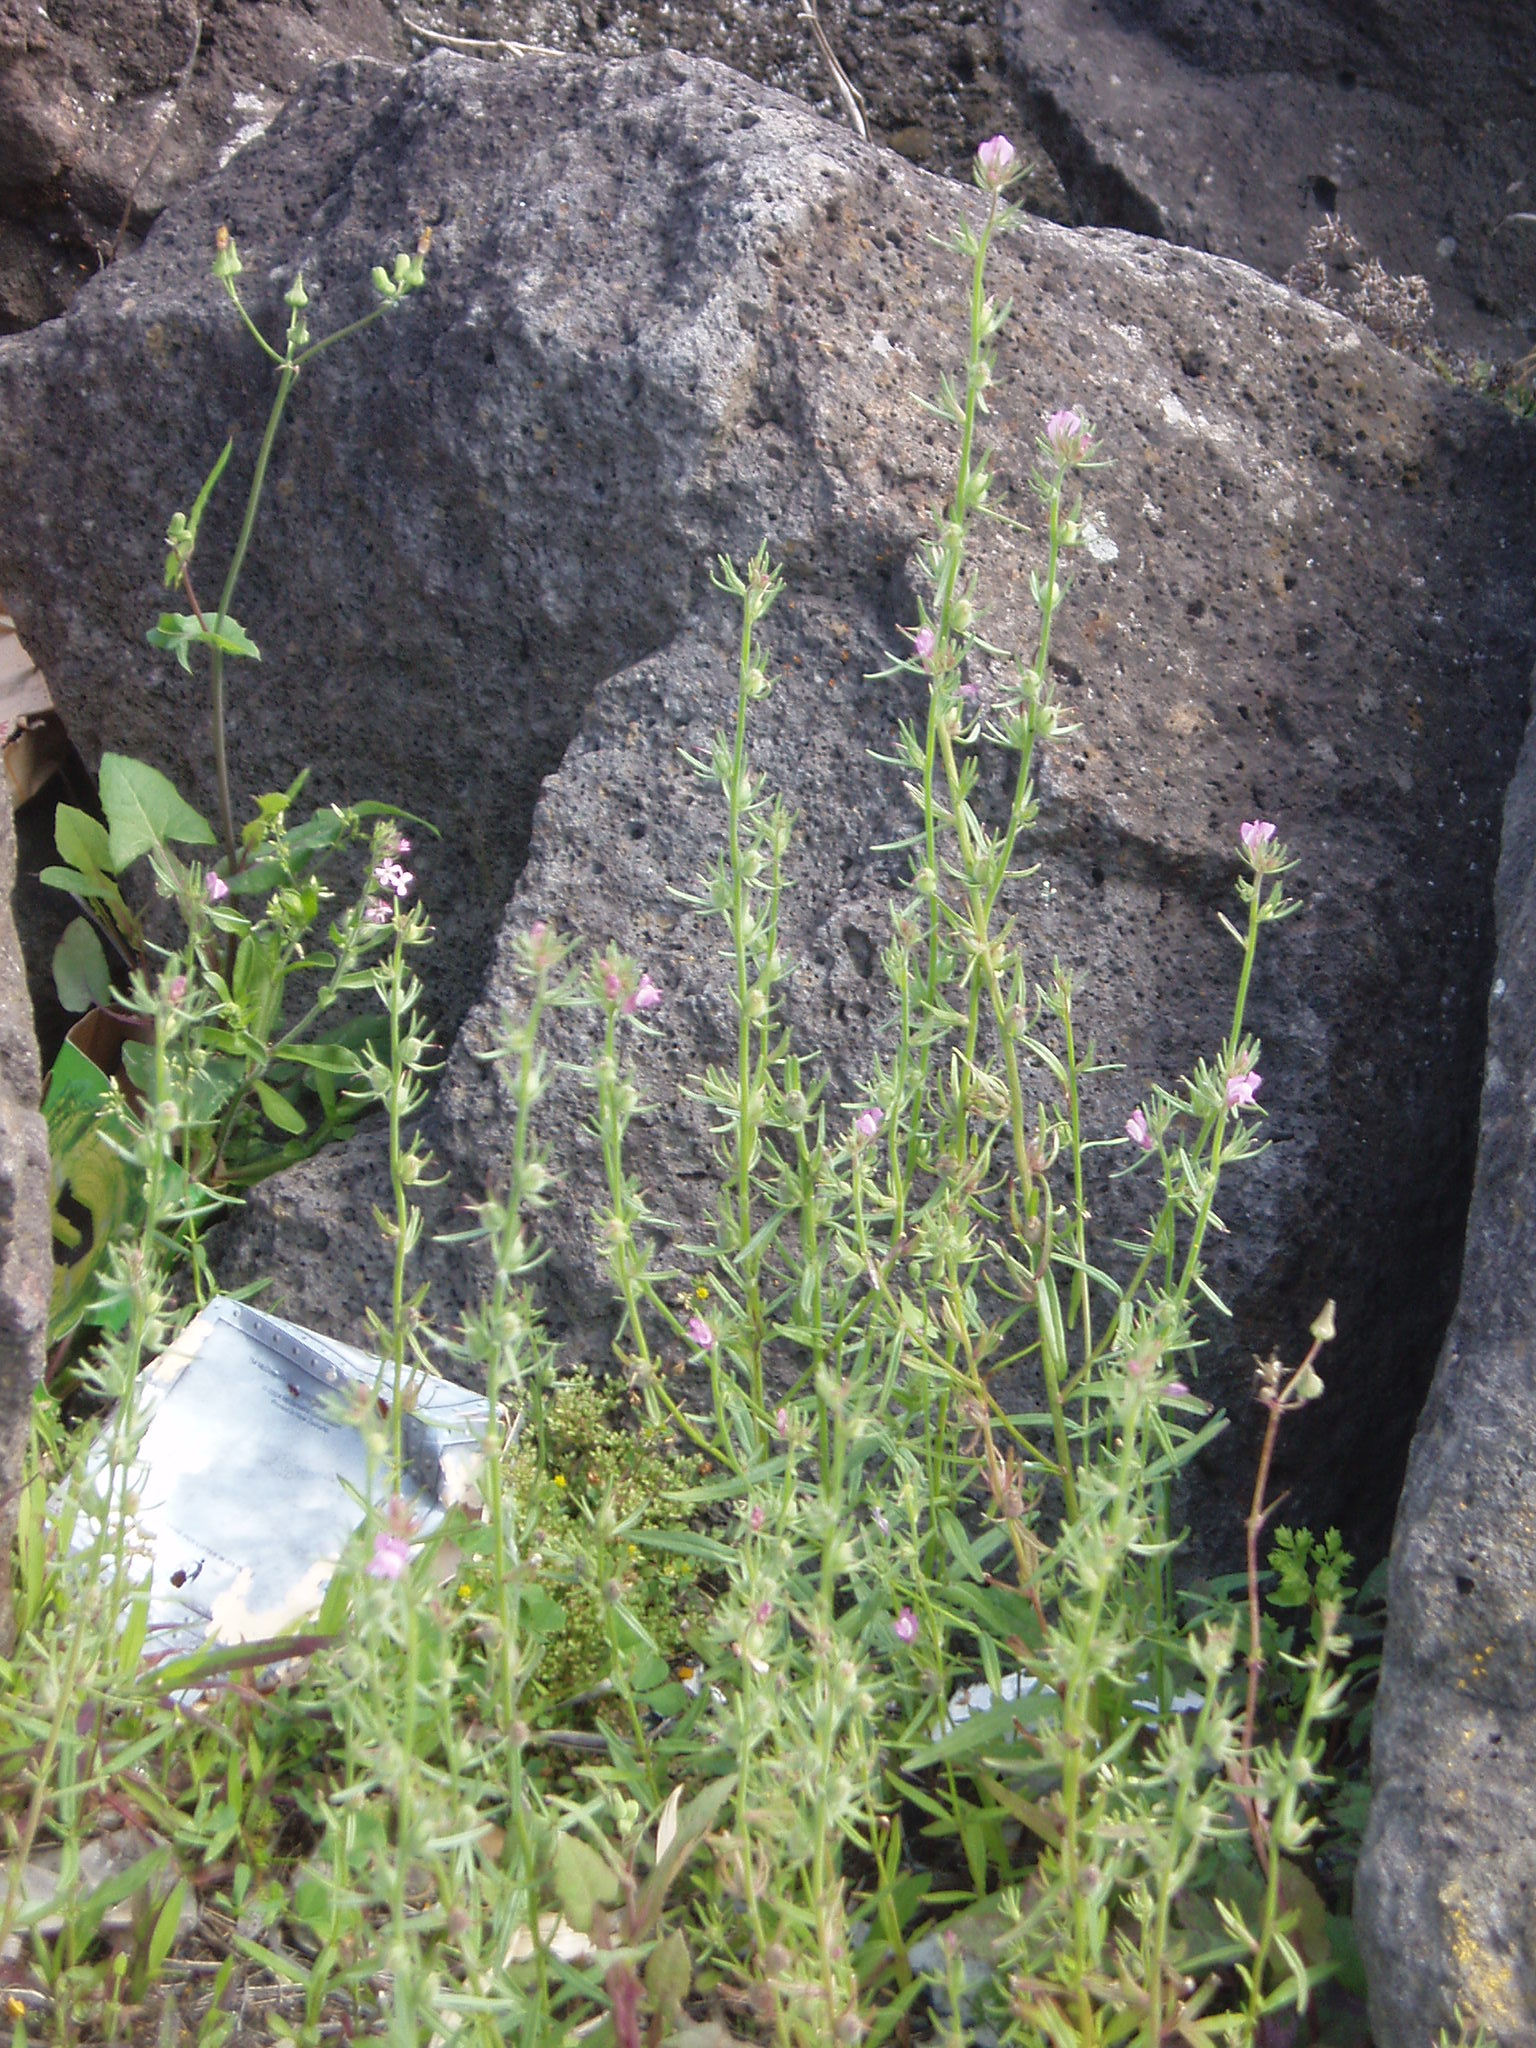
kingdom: Plantae
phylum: Tracheophyta
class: Magnoliopsida
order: Lamiales
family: Plantaginaceae
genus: Misopates
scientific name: Misopates orontium
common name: Weasel's-snout
